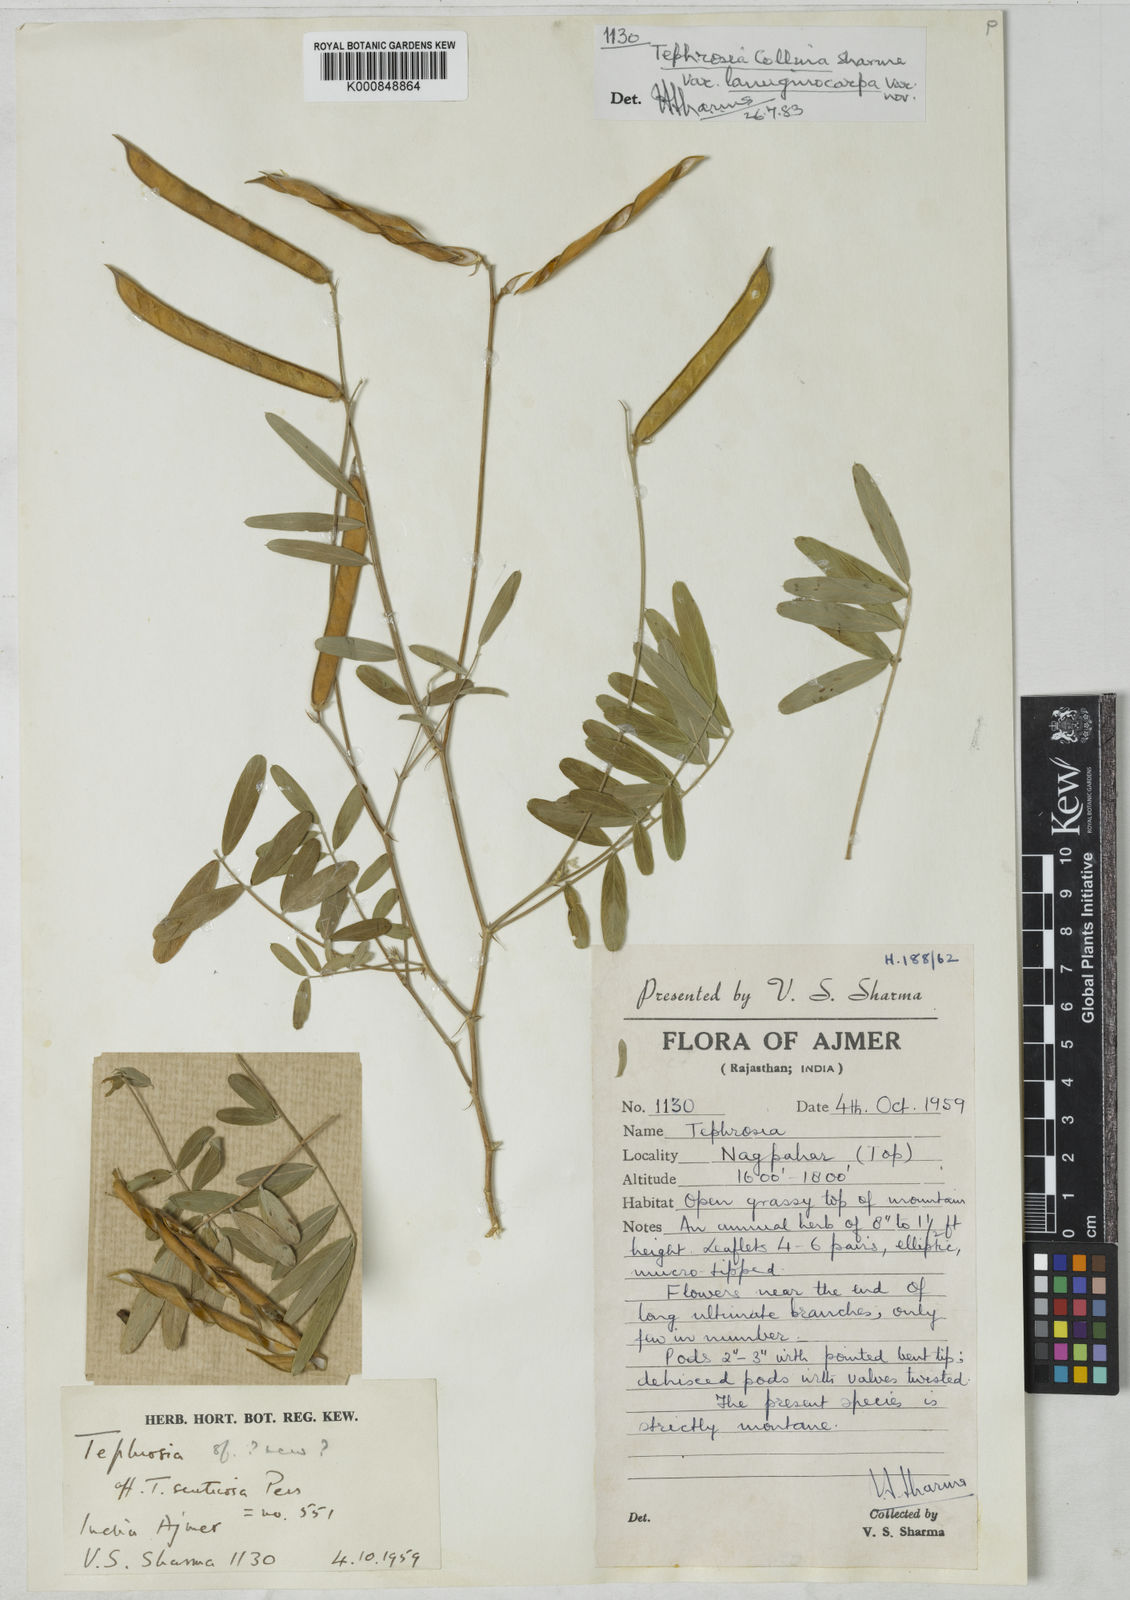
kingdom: Plantae
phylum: Tracheophyta
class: Magnoliopsida
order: Fabales
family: Fabaceae
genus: Tephrosia
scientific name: Tephrosia collina
